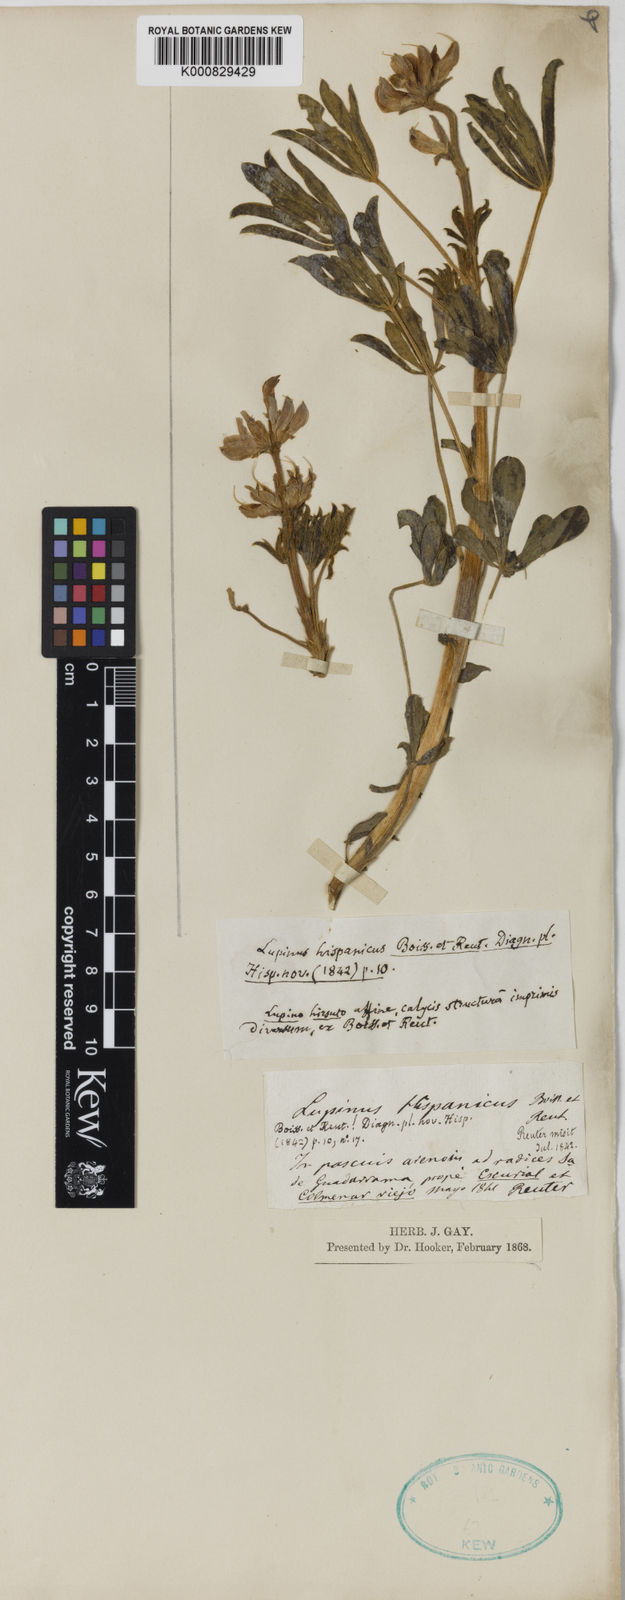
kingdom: Plantae
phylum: Tracheophyta
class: Magnoliopsida
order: Fabales
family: Fabaceae
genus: Lupinus
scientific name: Lupinus hispanicus
